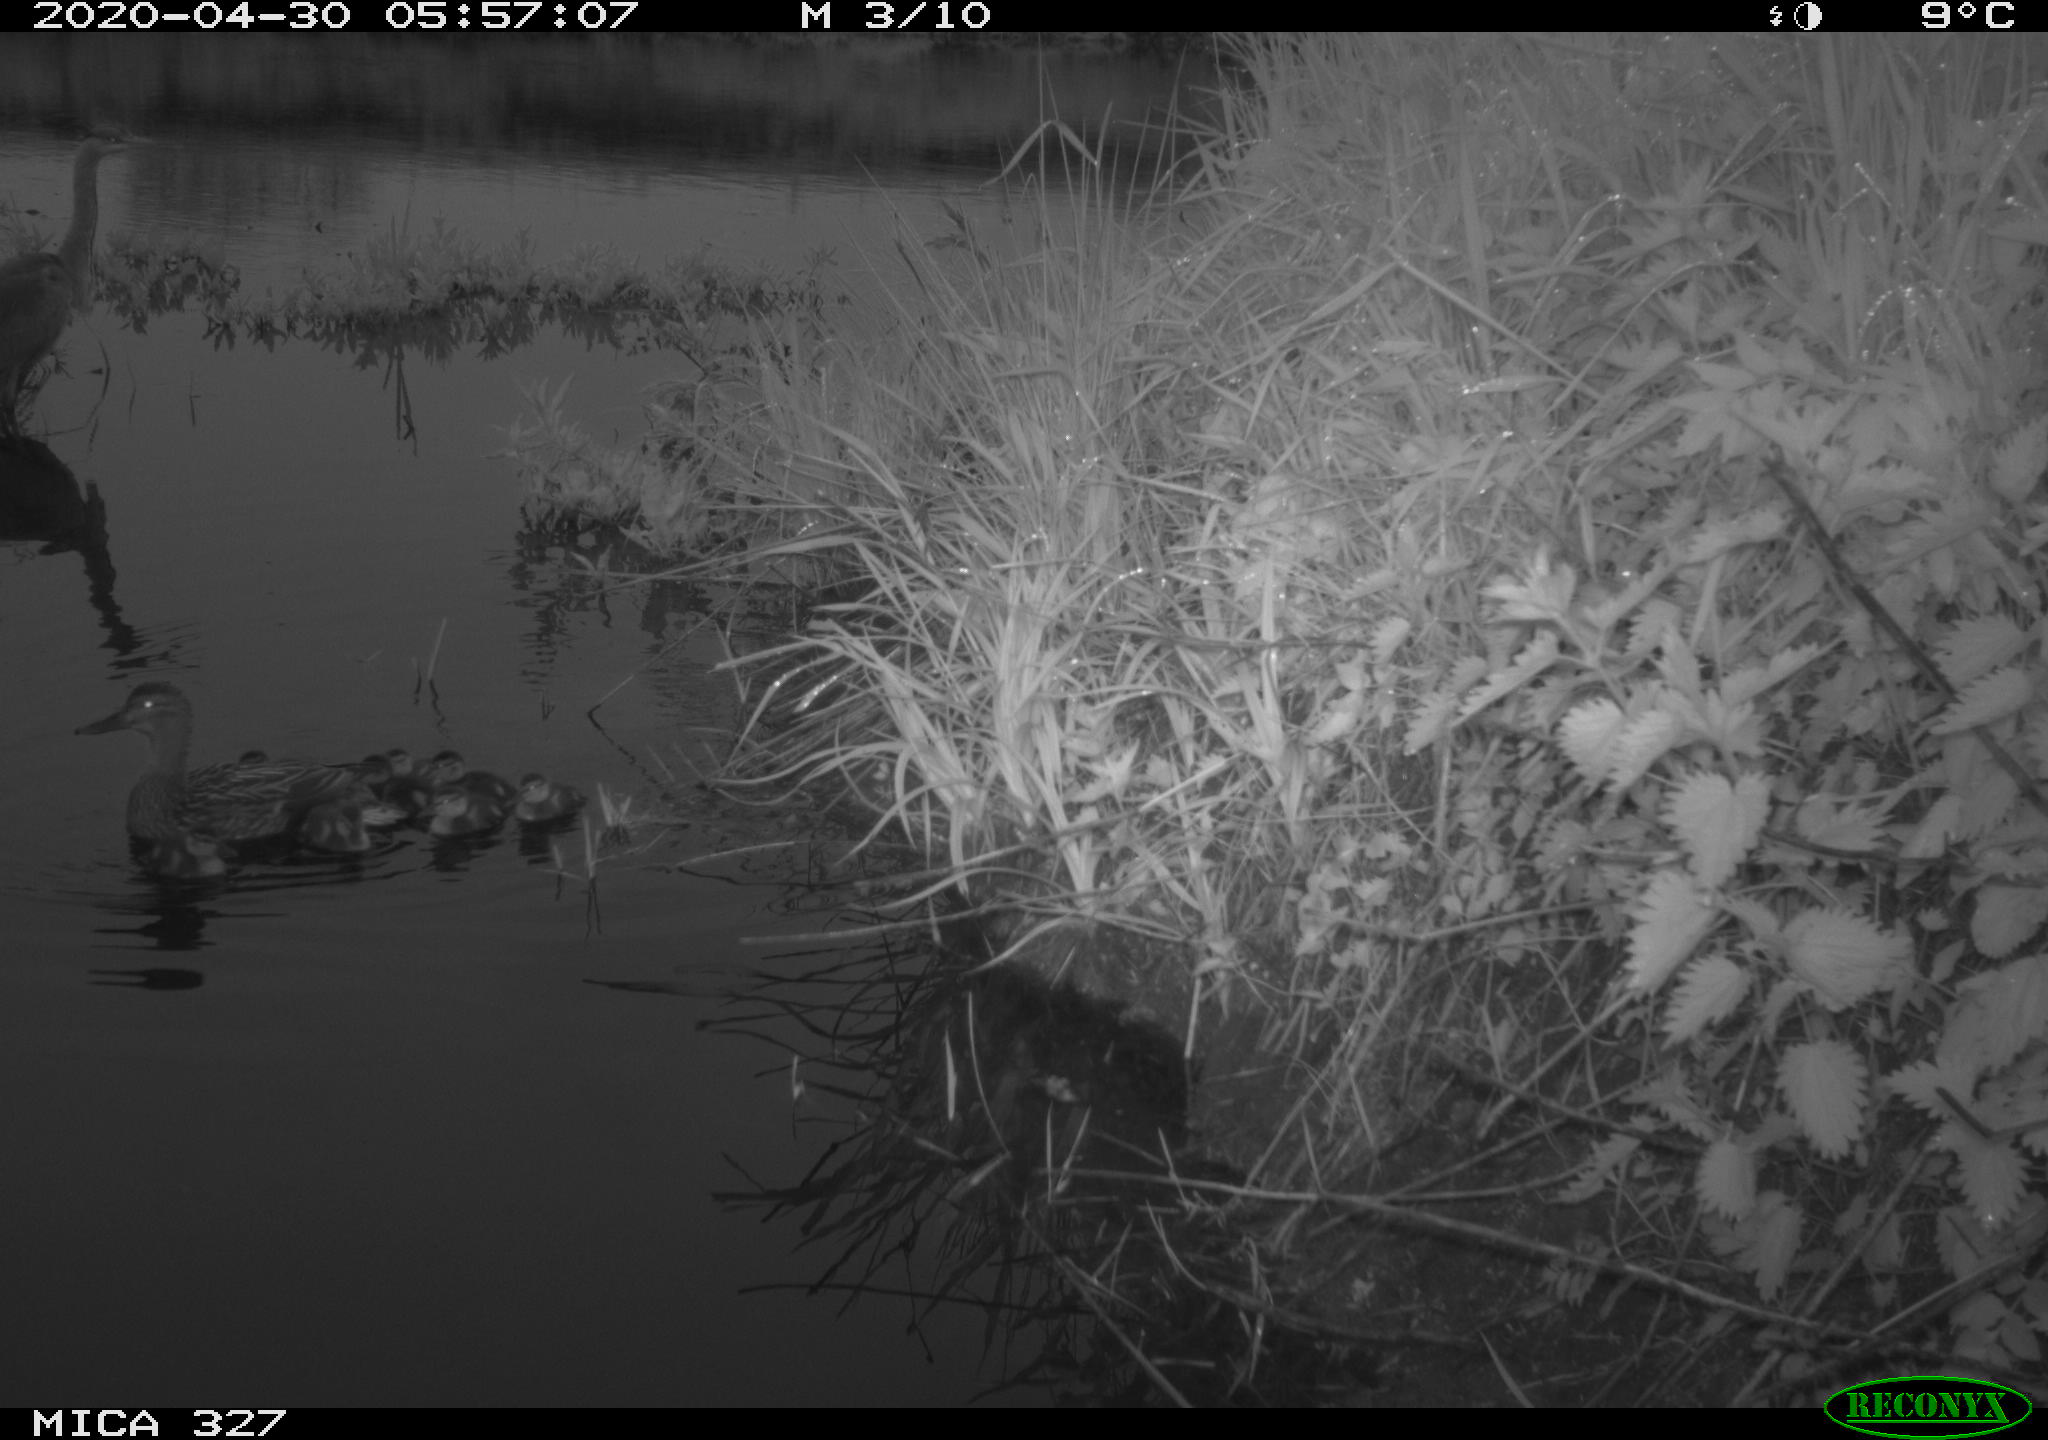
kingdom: Animalia
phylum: Chordata
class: Aves
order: Anseriformes
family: Anatidae
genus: Anas
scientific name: Anas platyrhynchos
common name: Mallard
